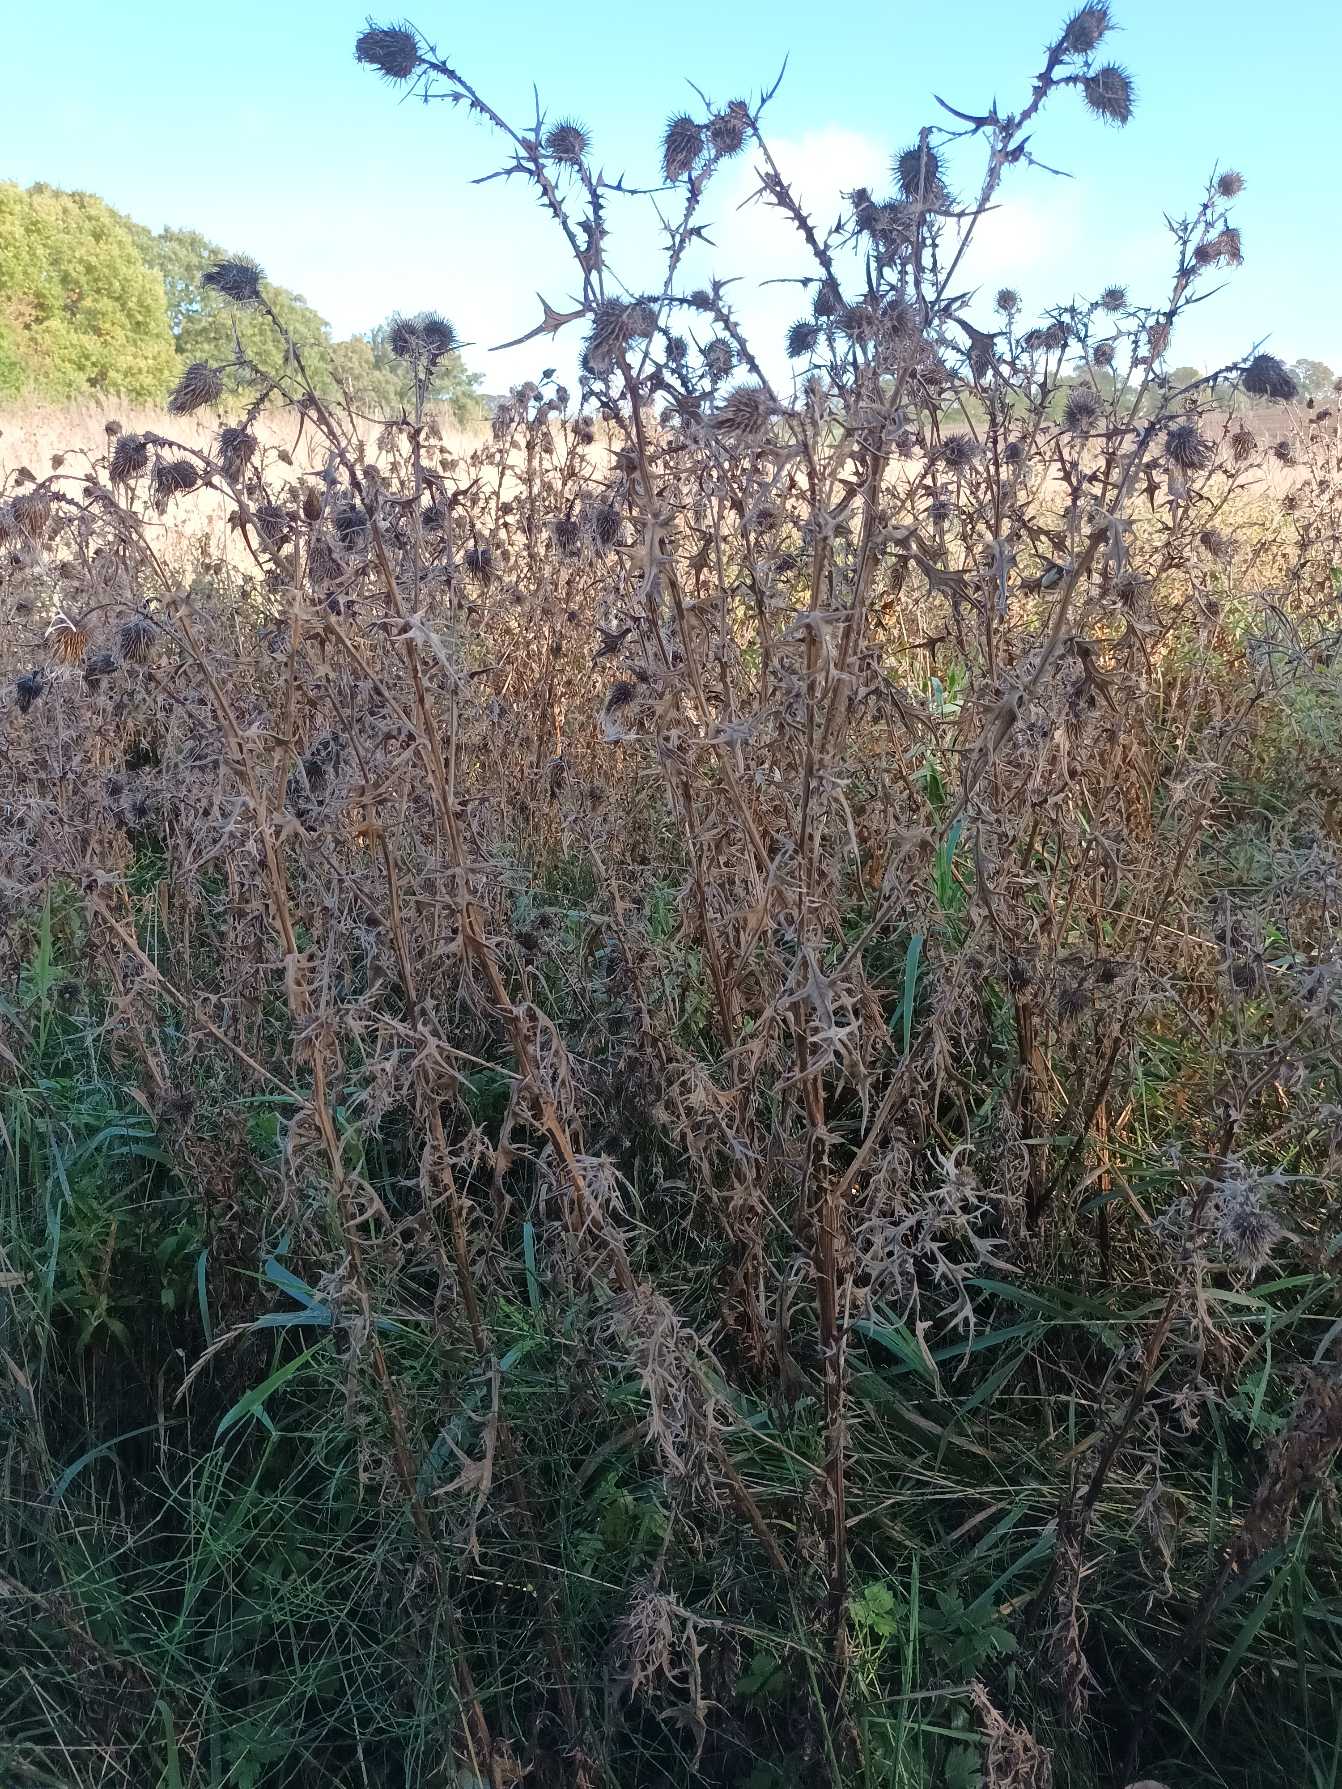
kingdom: Plantae
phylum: Tracheophyta
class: Magnoliopsida
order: Asterales
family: Asteraceae
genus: Cirsium
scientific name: Cirsium vulgare
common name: Horse-tidsel
